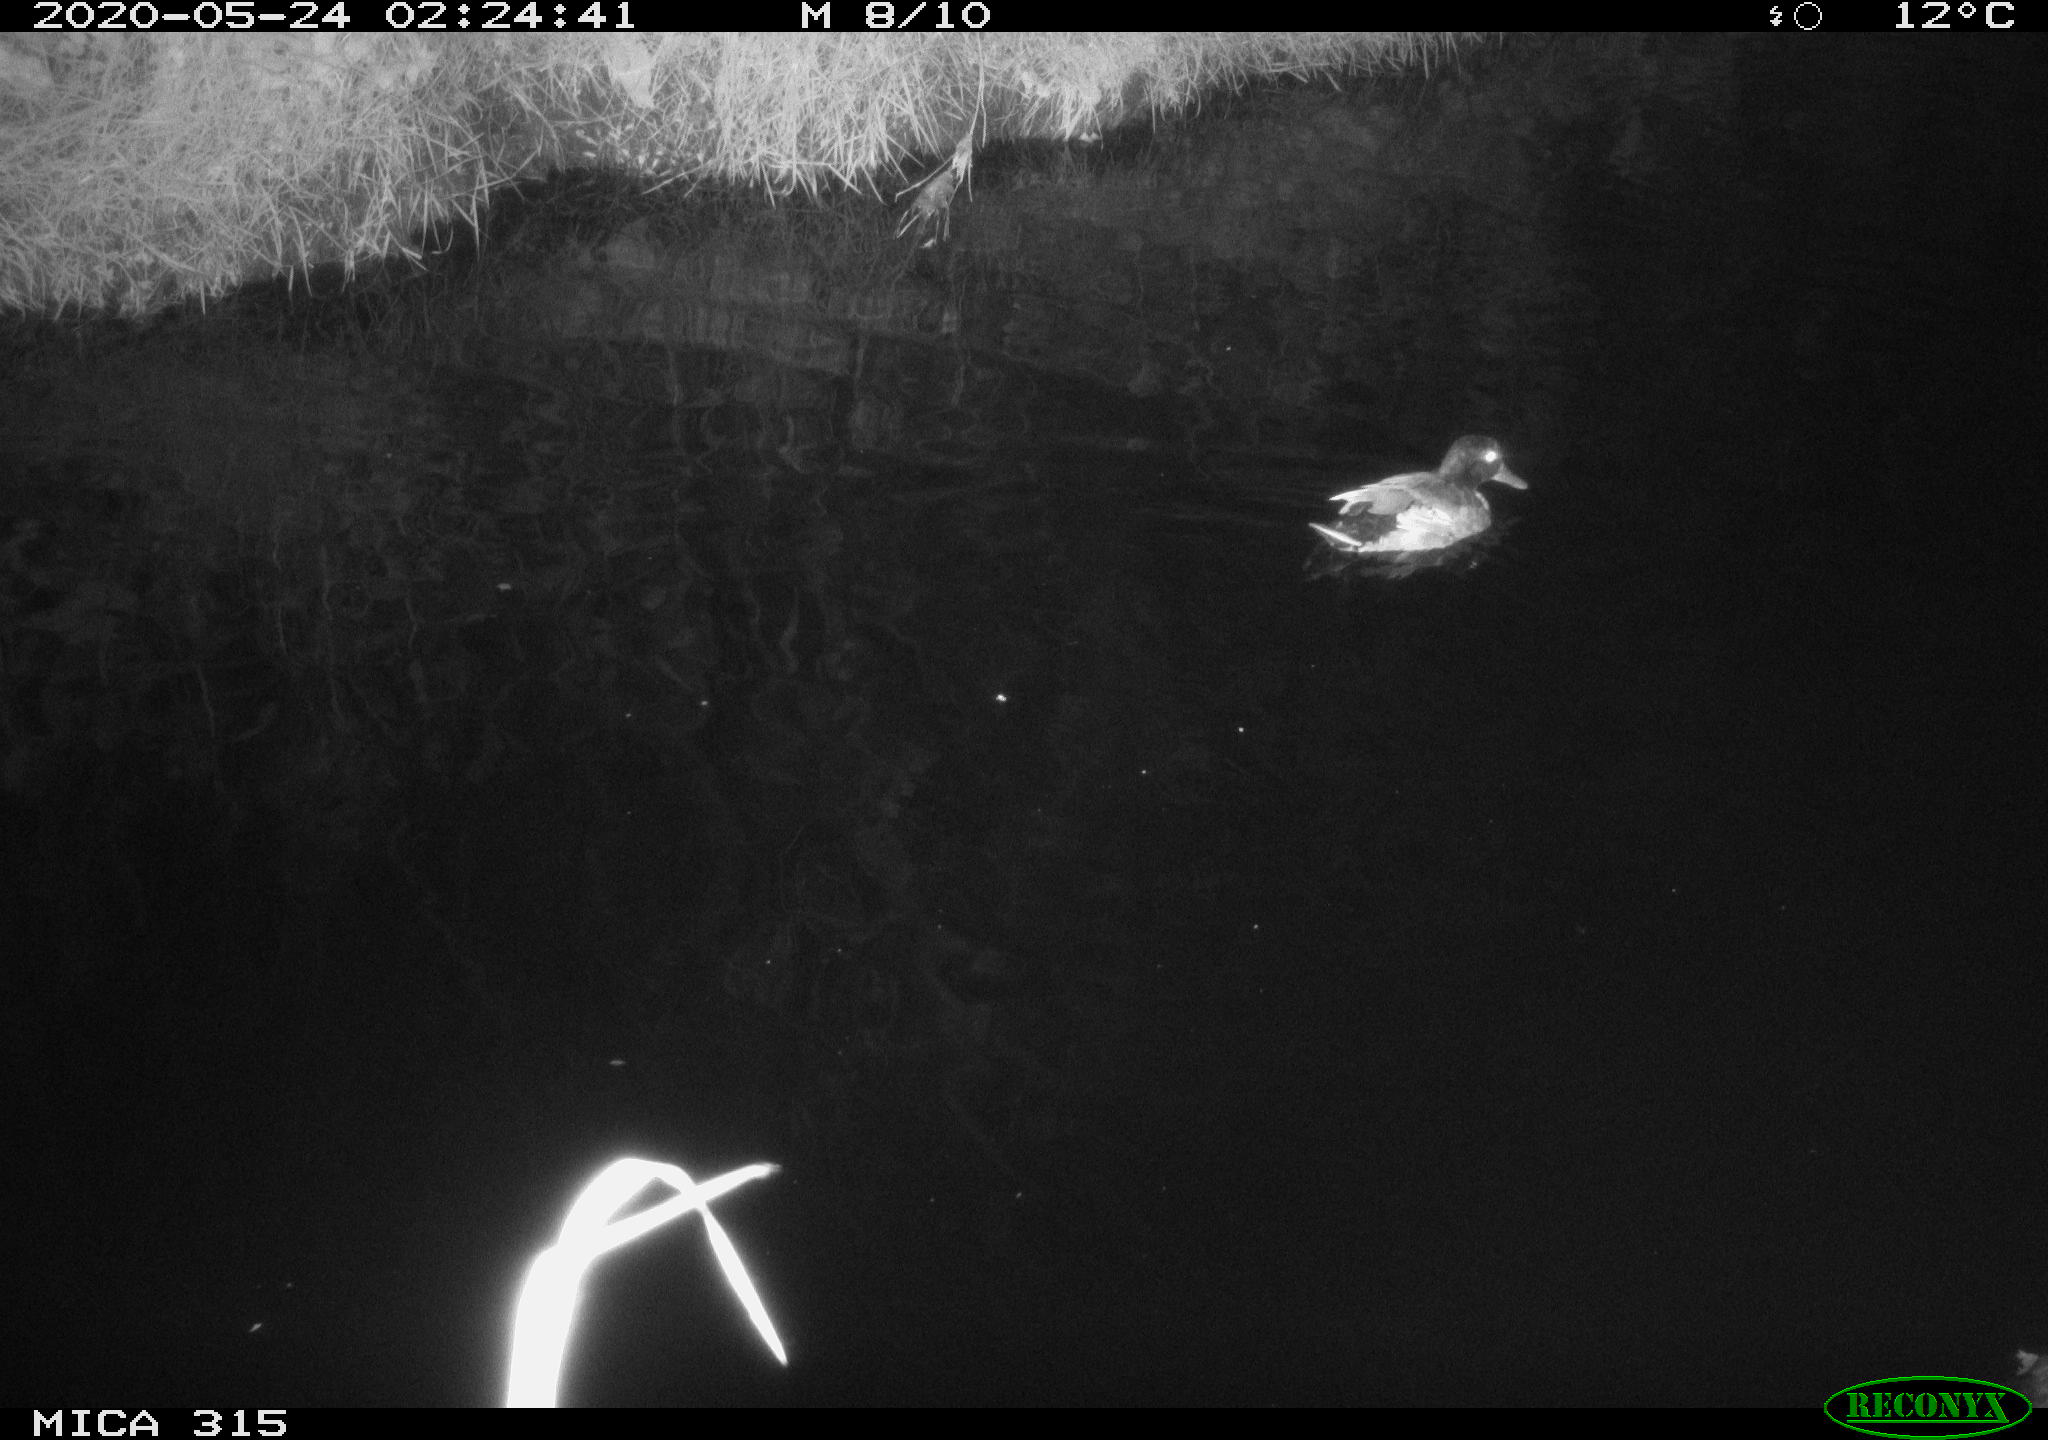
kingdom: Animalia
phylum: Chordata
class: Aves
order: Anseriformes
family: Anatidae
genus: Anas
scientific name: Anas platyrhynchos
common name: Mallard
